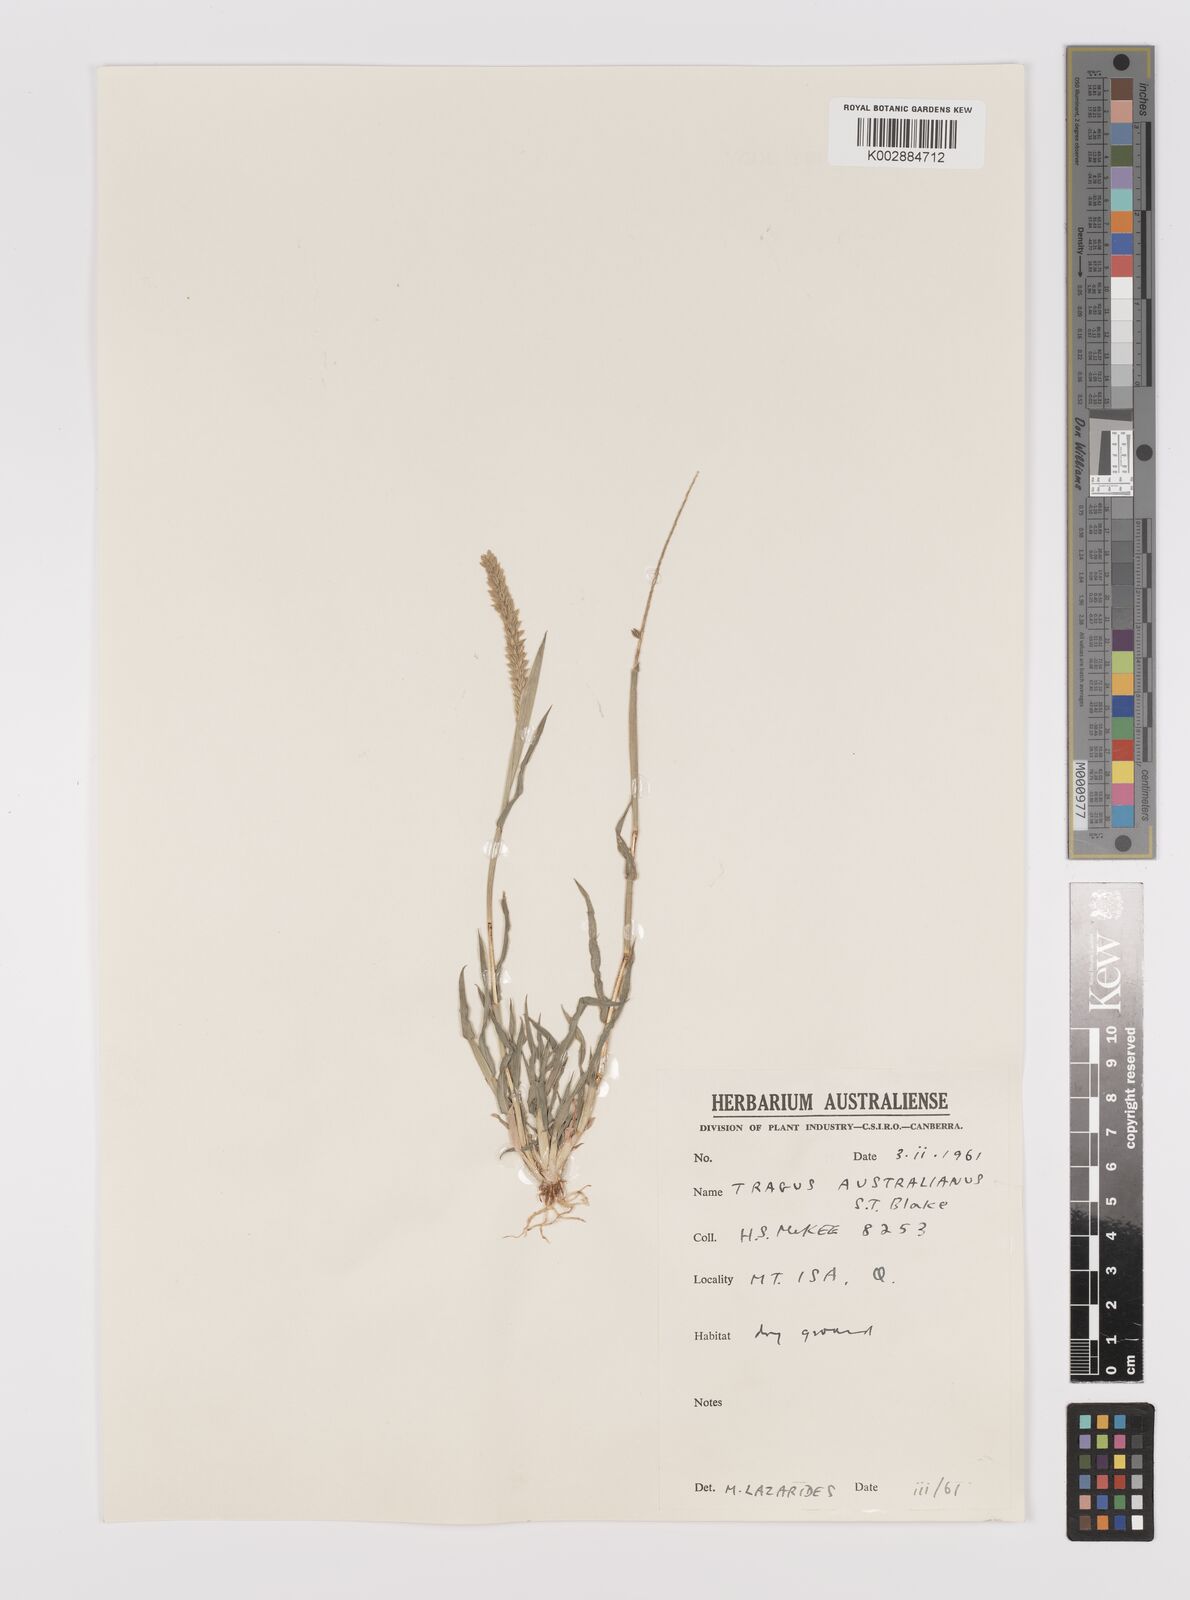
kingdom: Plantae
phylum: Tracheophyta
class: Liliopsida
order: Poales
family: Poaceae
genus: Tragus
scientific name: Tragus australianus
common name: Australian bur-grass
